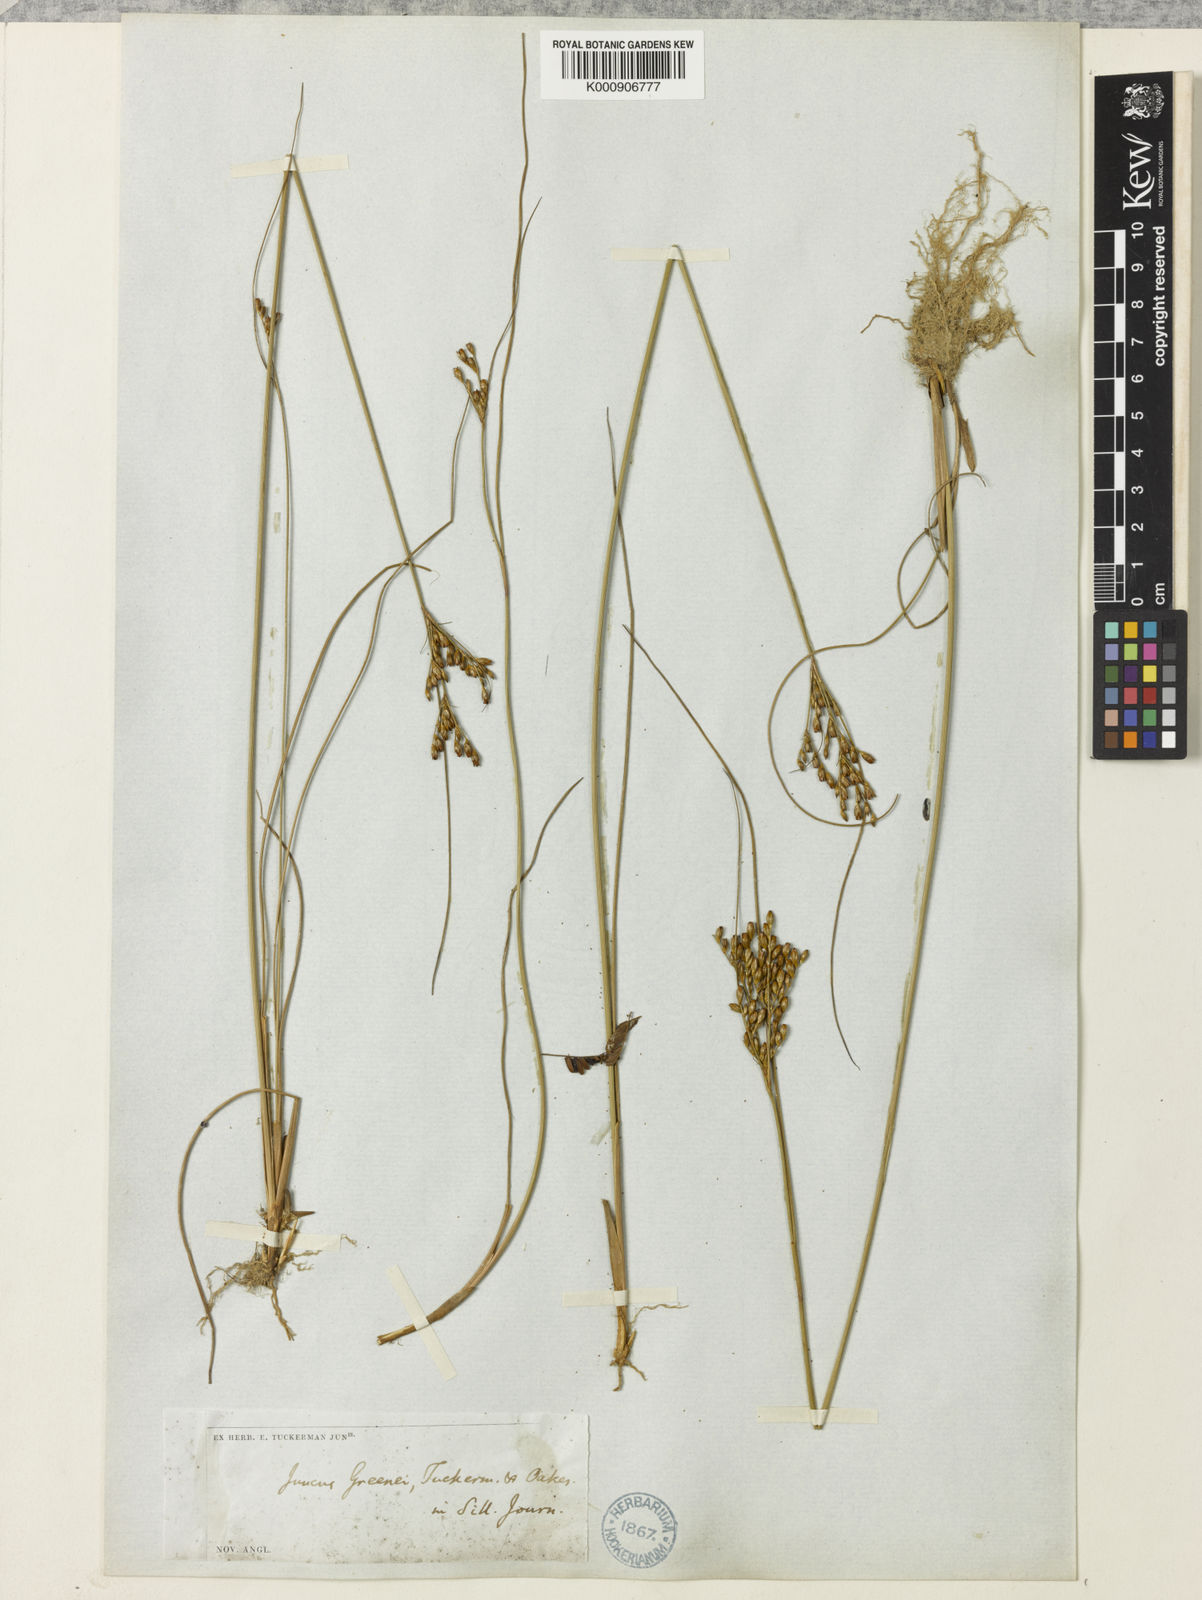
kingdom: Plantae
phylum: Tracheophyta
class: Liliopsida
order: Poales
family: Juncaceae
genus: Juncus
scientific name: Juncus greenei
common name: Greene's rush
